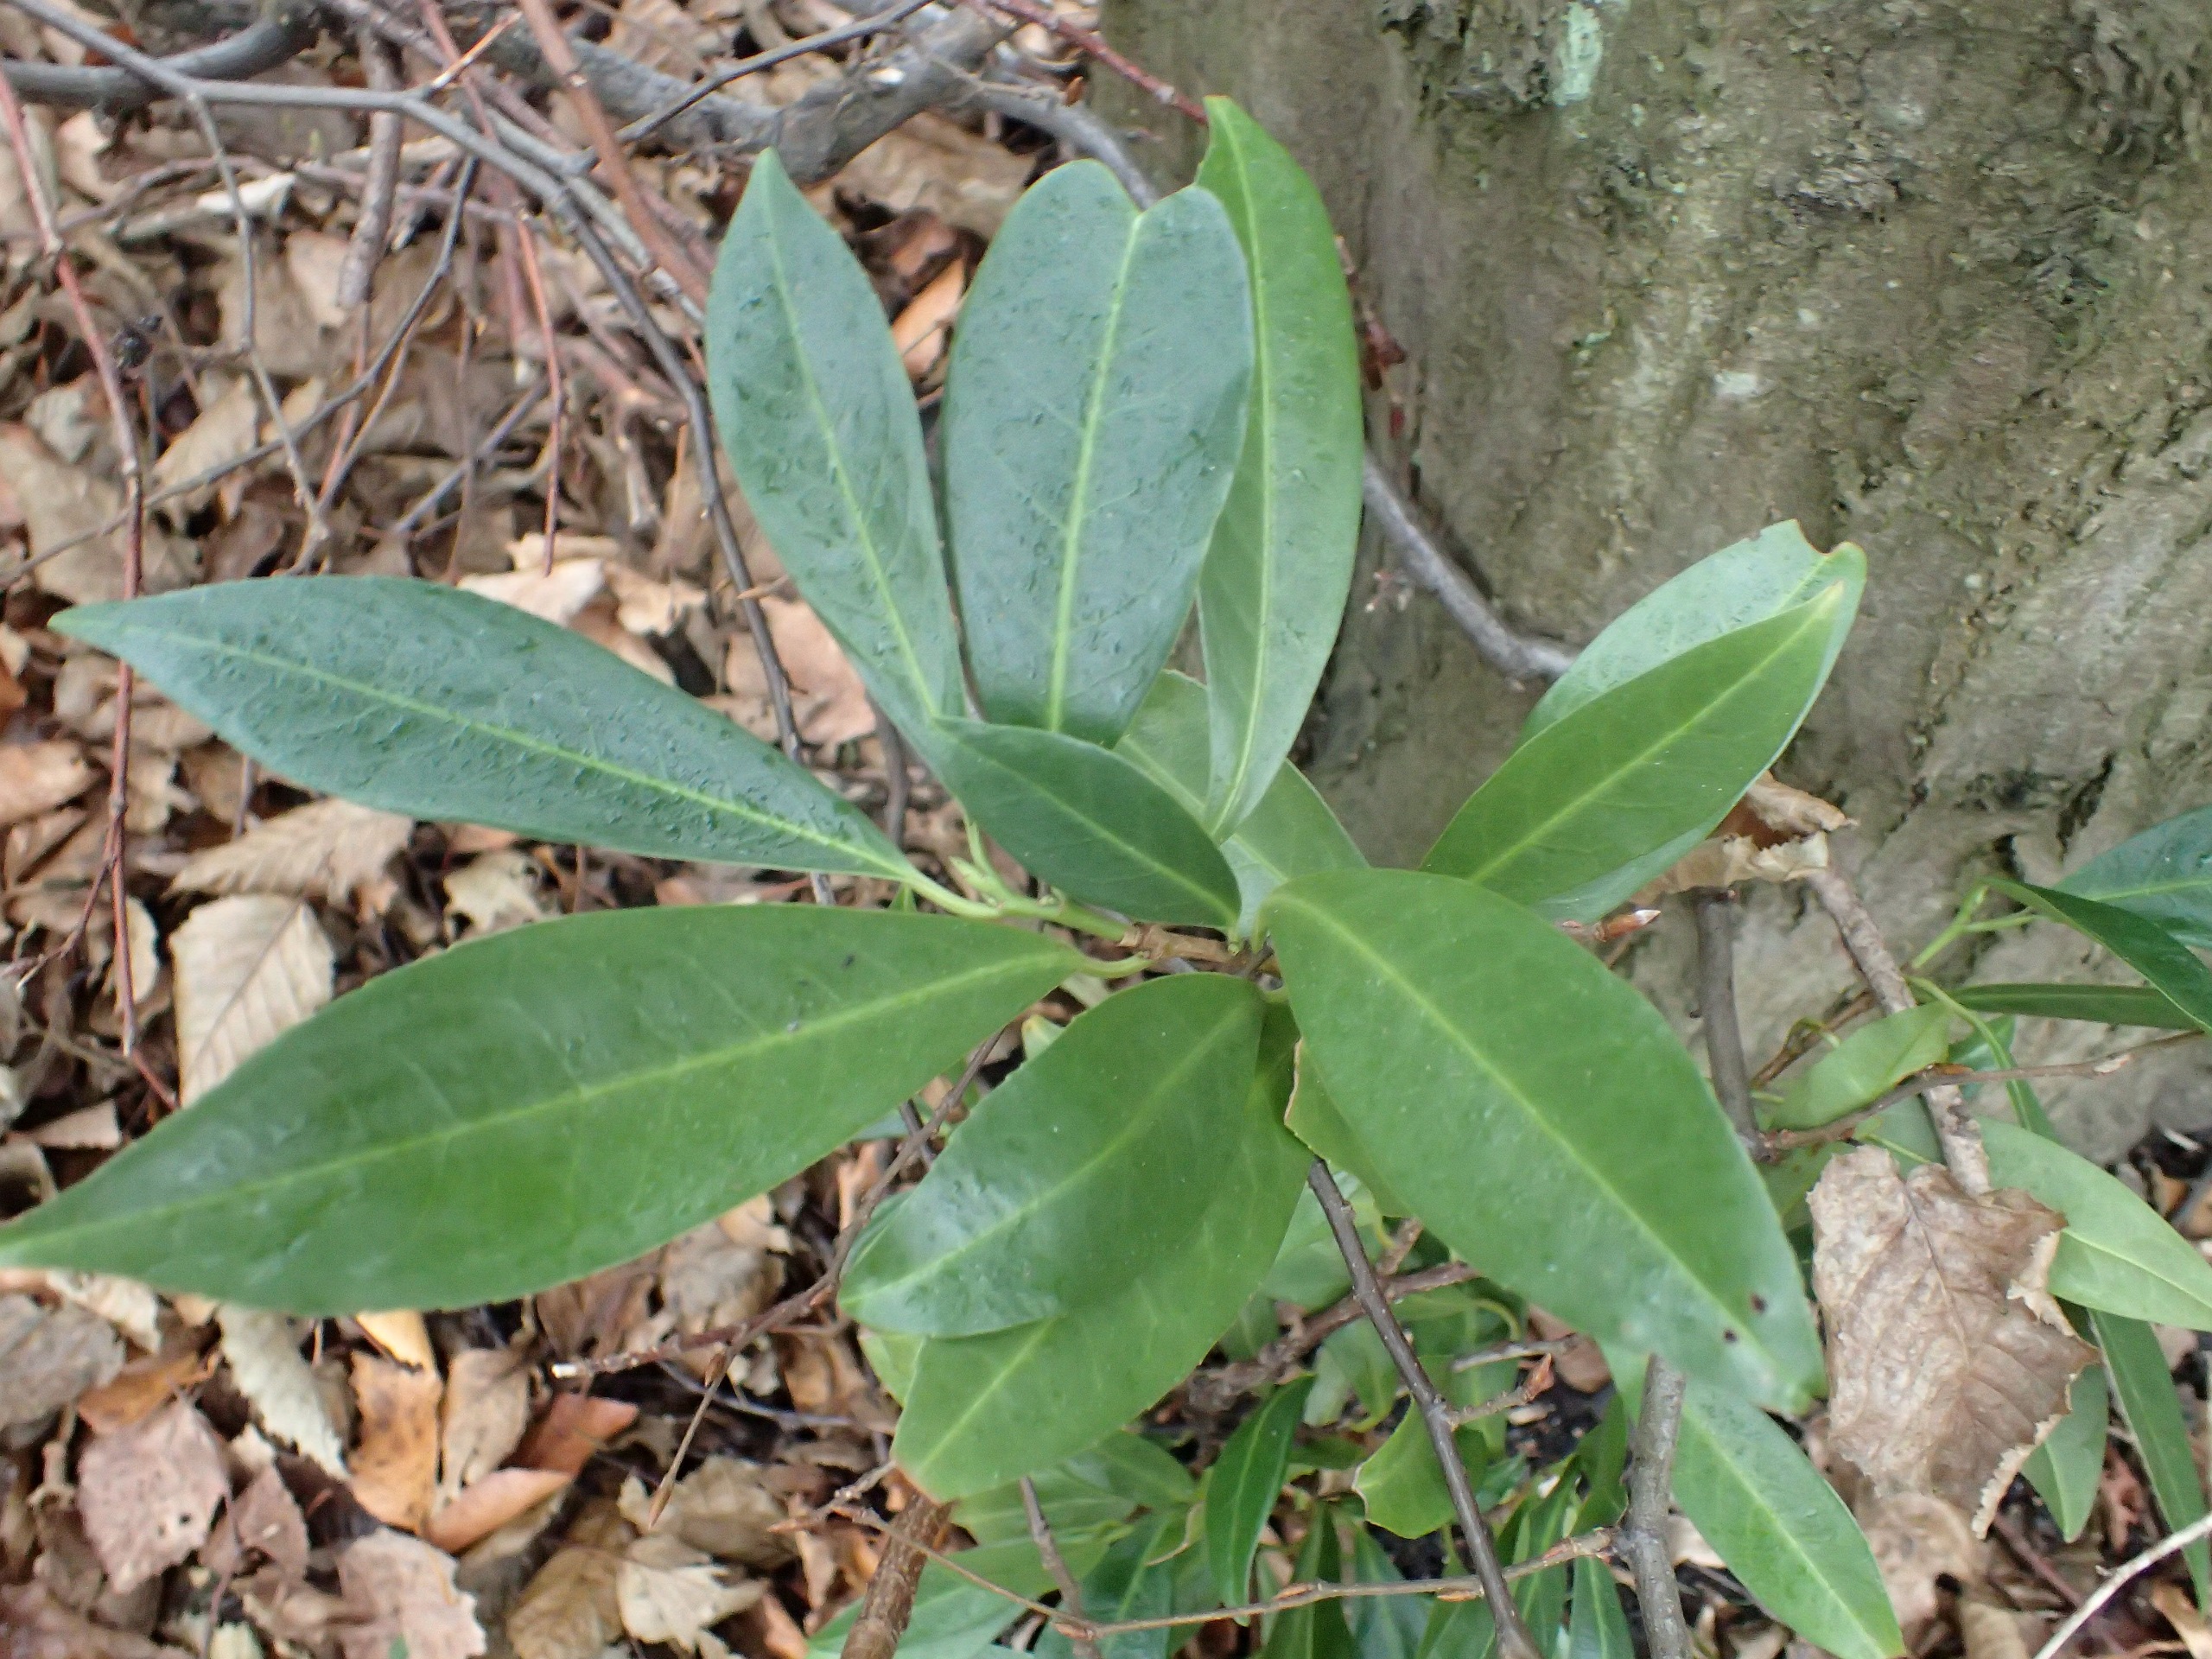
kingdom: Plantae
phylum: Tracheophyta
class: Magnoliopsida
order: Rosales
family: Rosaceae
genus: Prunus
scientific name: Prunus laurocerasus
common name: Laurbærkirsebær
